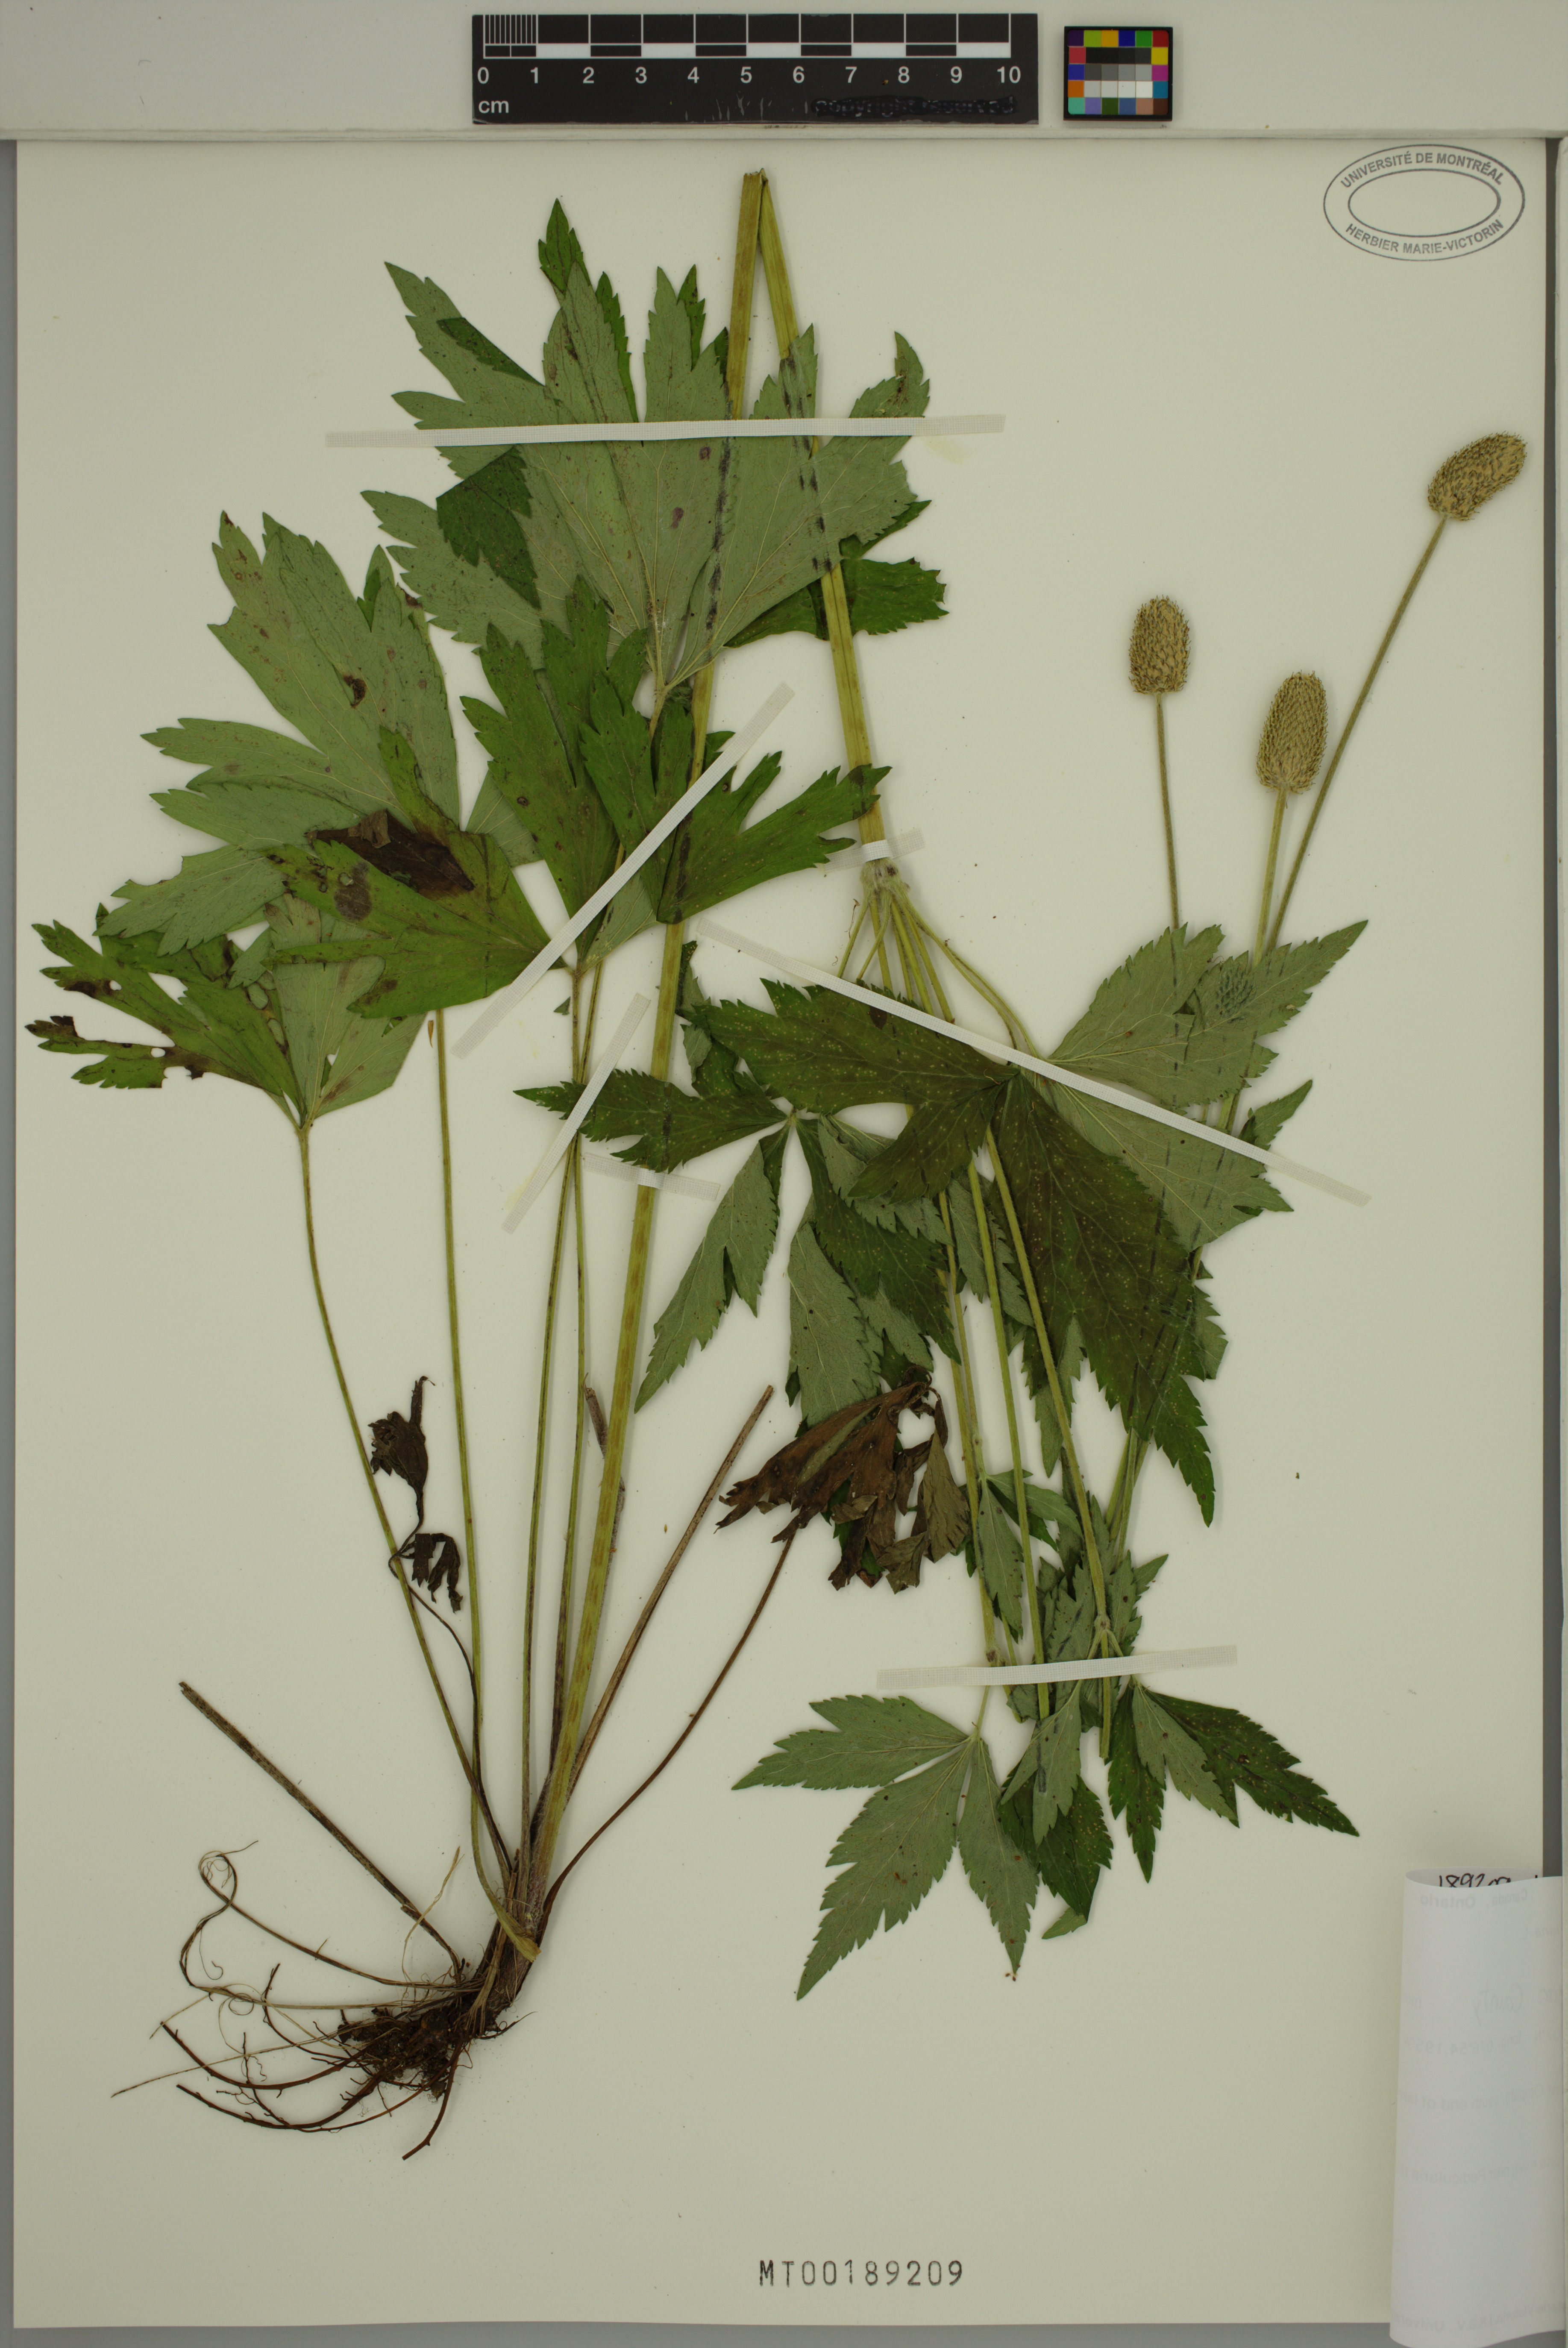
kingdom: Plantae
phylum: Tracheophyta
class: Magnoliopsida
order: Ranunculales
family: Ranunculaceae
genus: Anemone
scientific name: Anemone virginiana
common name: Tall anemone
